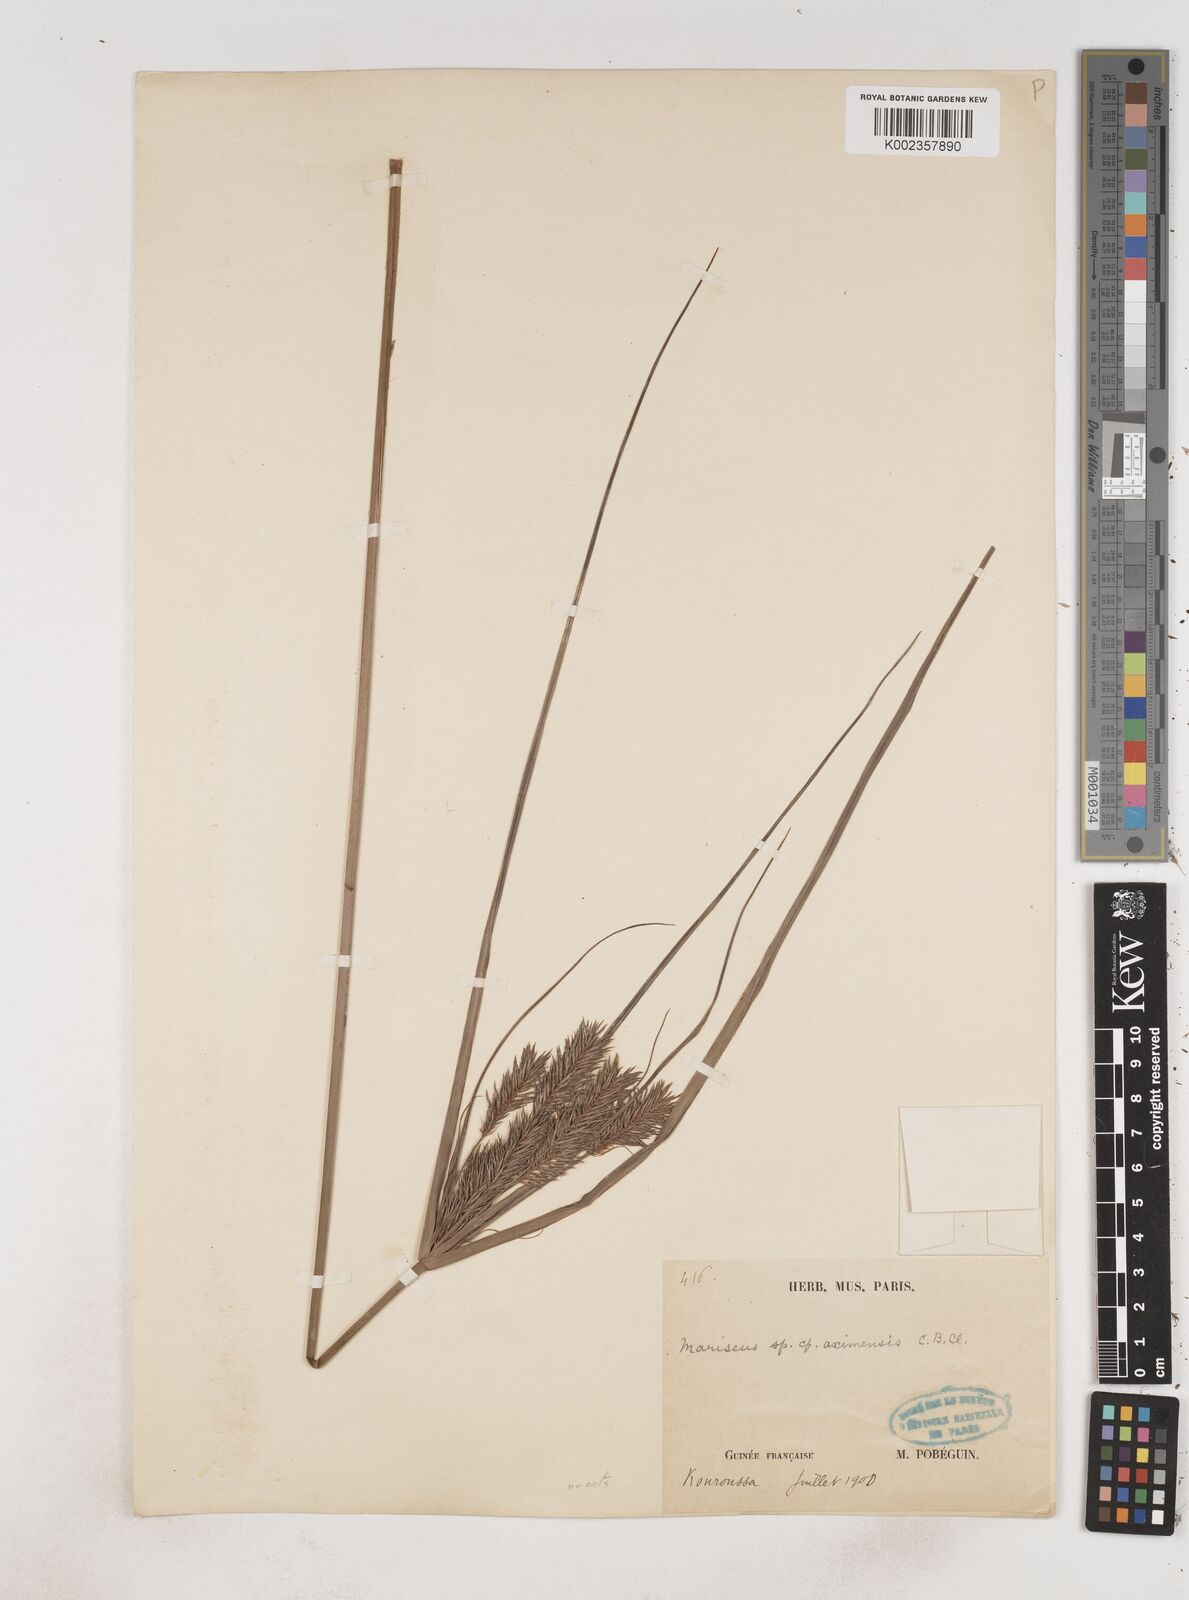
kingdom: Plantae
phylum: Tracheophyta
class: Liliopsida
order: Poales
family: Cyperaceae
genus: Cyperus
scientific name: Cyperus
